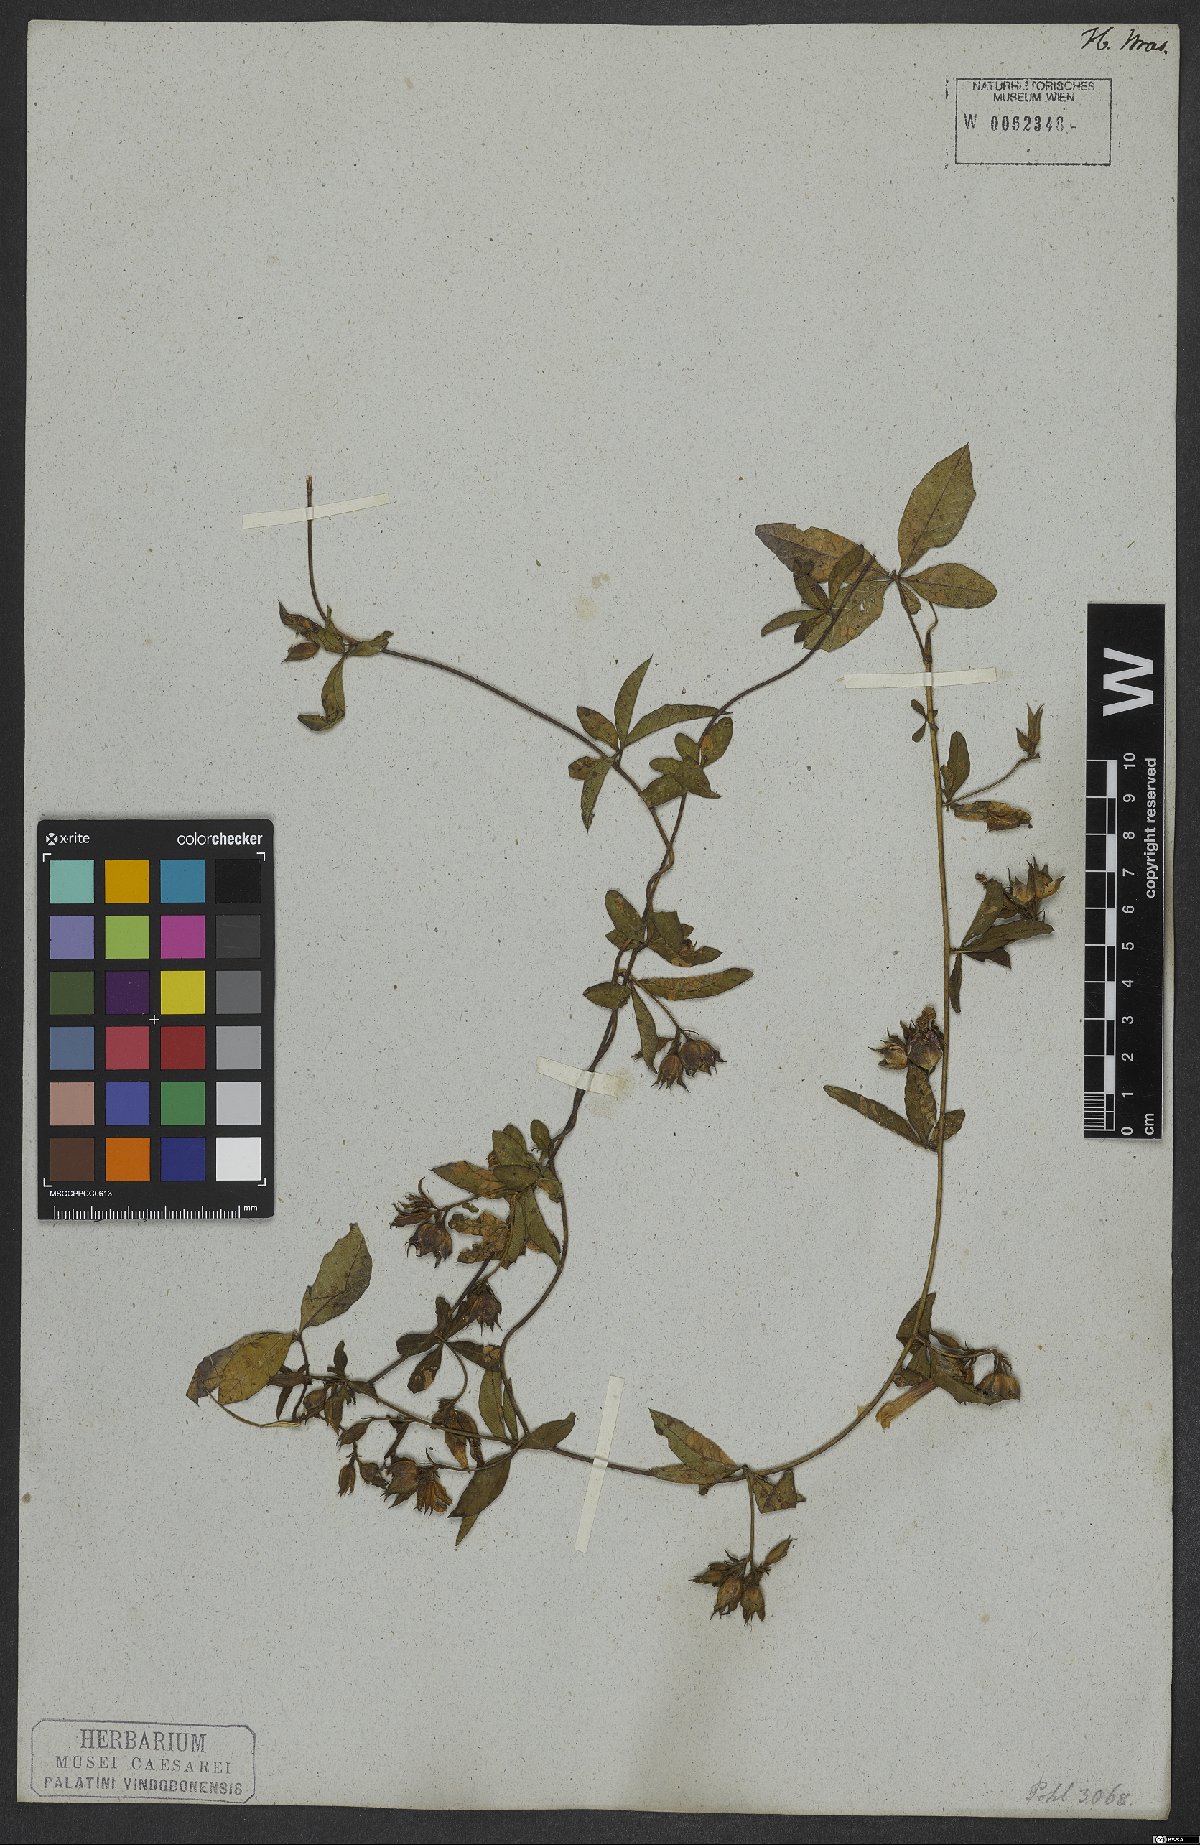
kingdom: Plantae
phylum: Tracheophyta
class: Magnoliopsida
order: Solanales
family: Convolvulaceae
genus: Distimake
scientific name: Distimake cissoides
